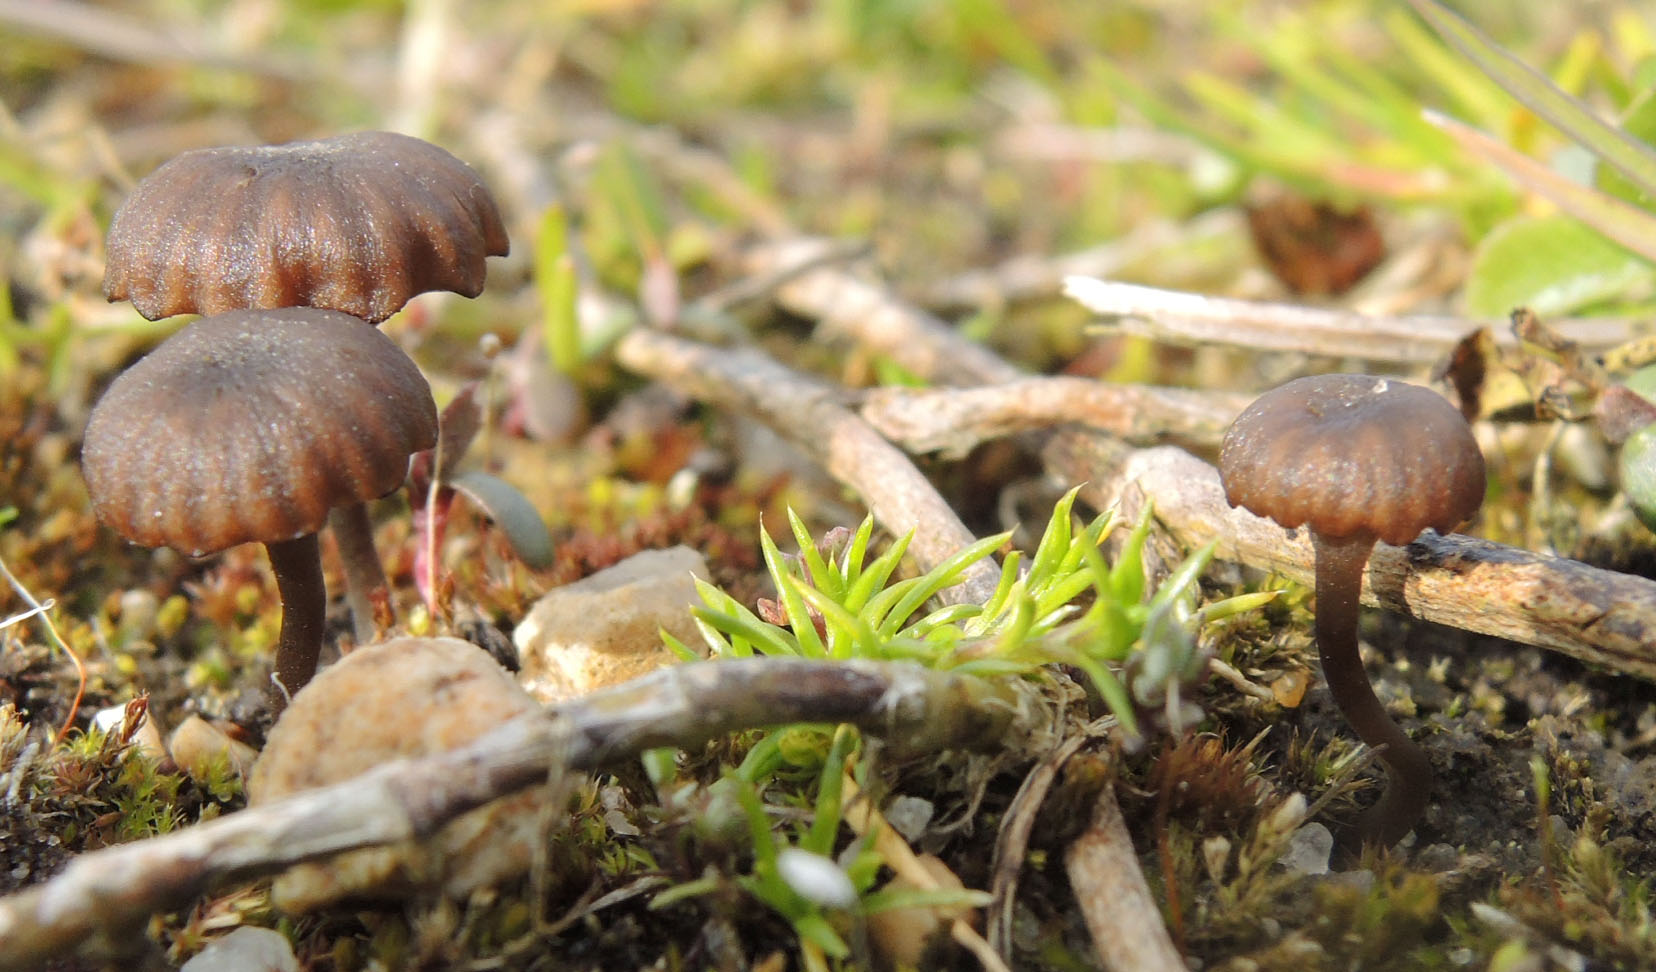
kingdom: Fungi
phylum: Basidiomycota
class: Agaricomycetes
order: Agaricales
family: Hygrophoraceae
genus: Arrhenia
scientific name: Arrhenia obscurata
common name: hede-fontænehat
